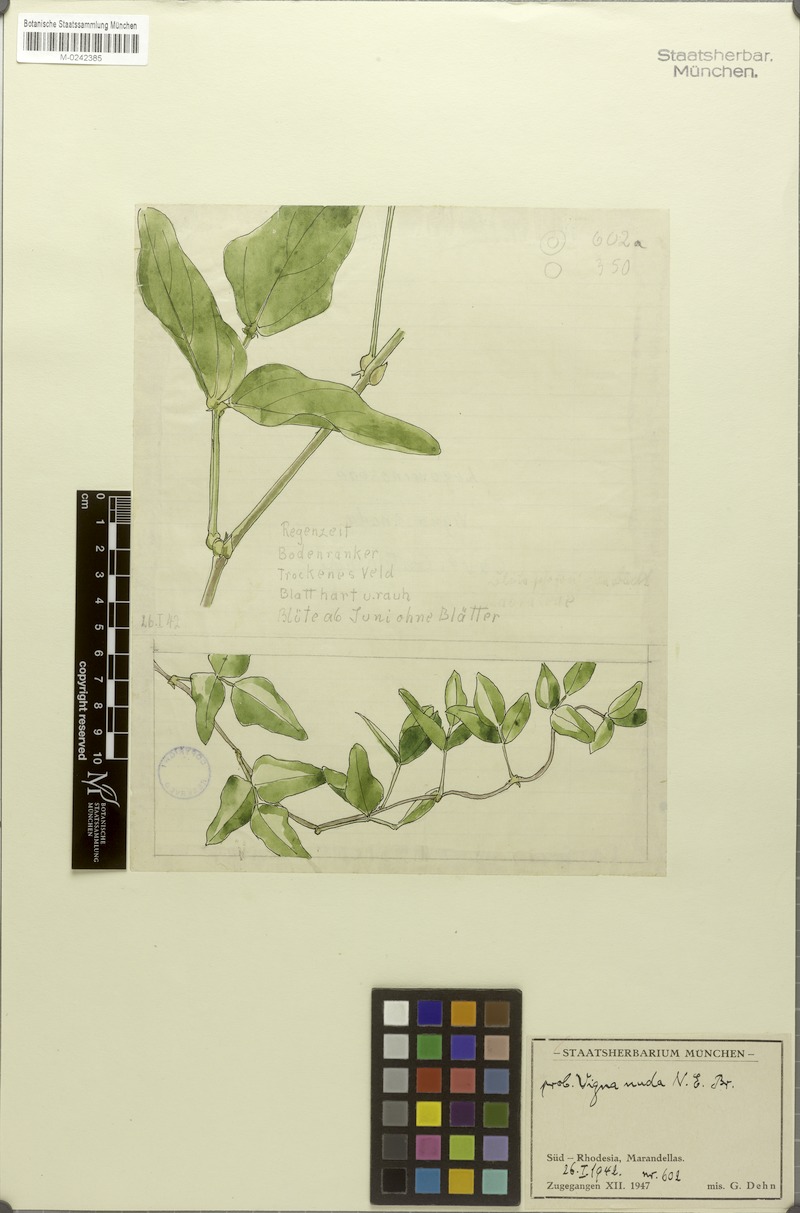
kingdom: Plantae
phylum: Tracheophyta
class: Magnoliopsida
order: Fabales
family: Fabaceae
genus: Vigna
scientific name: Vigna antunesii
